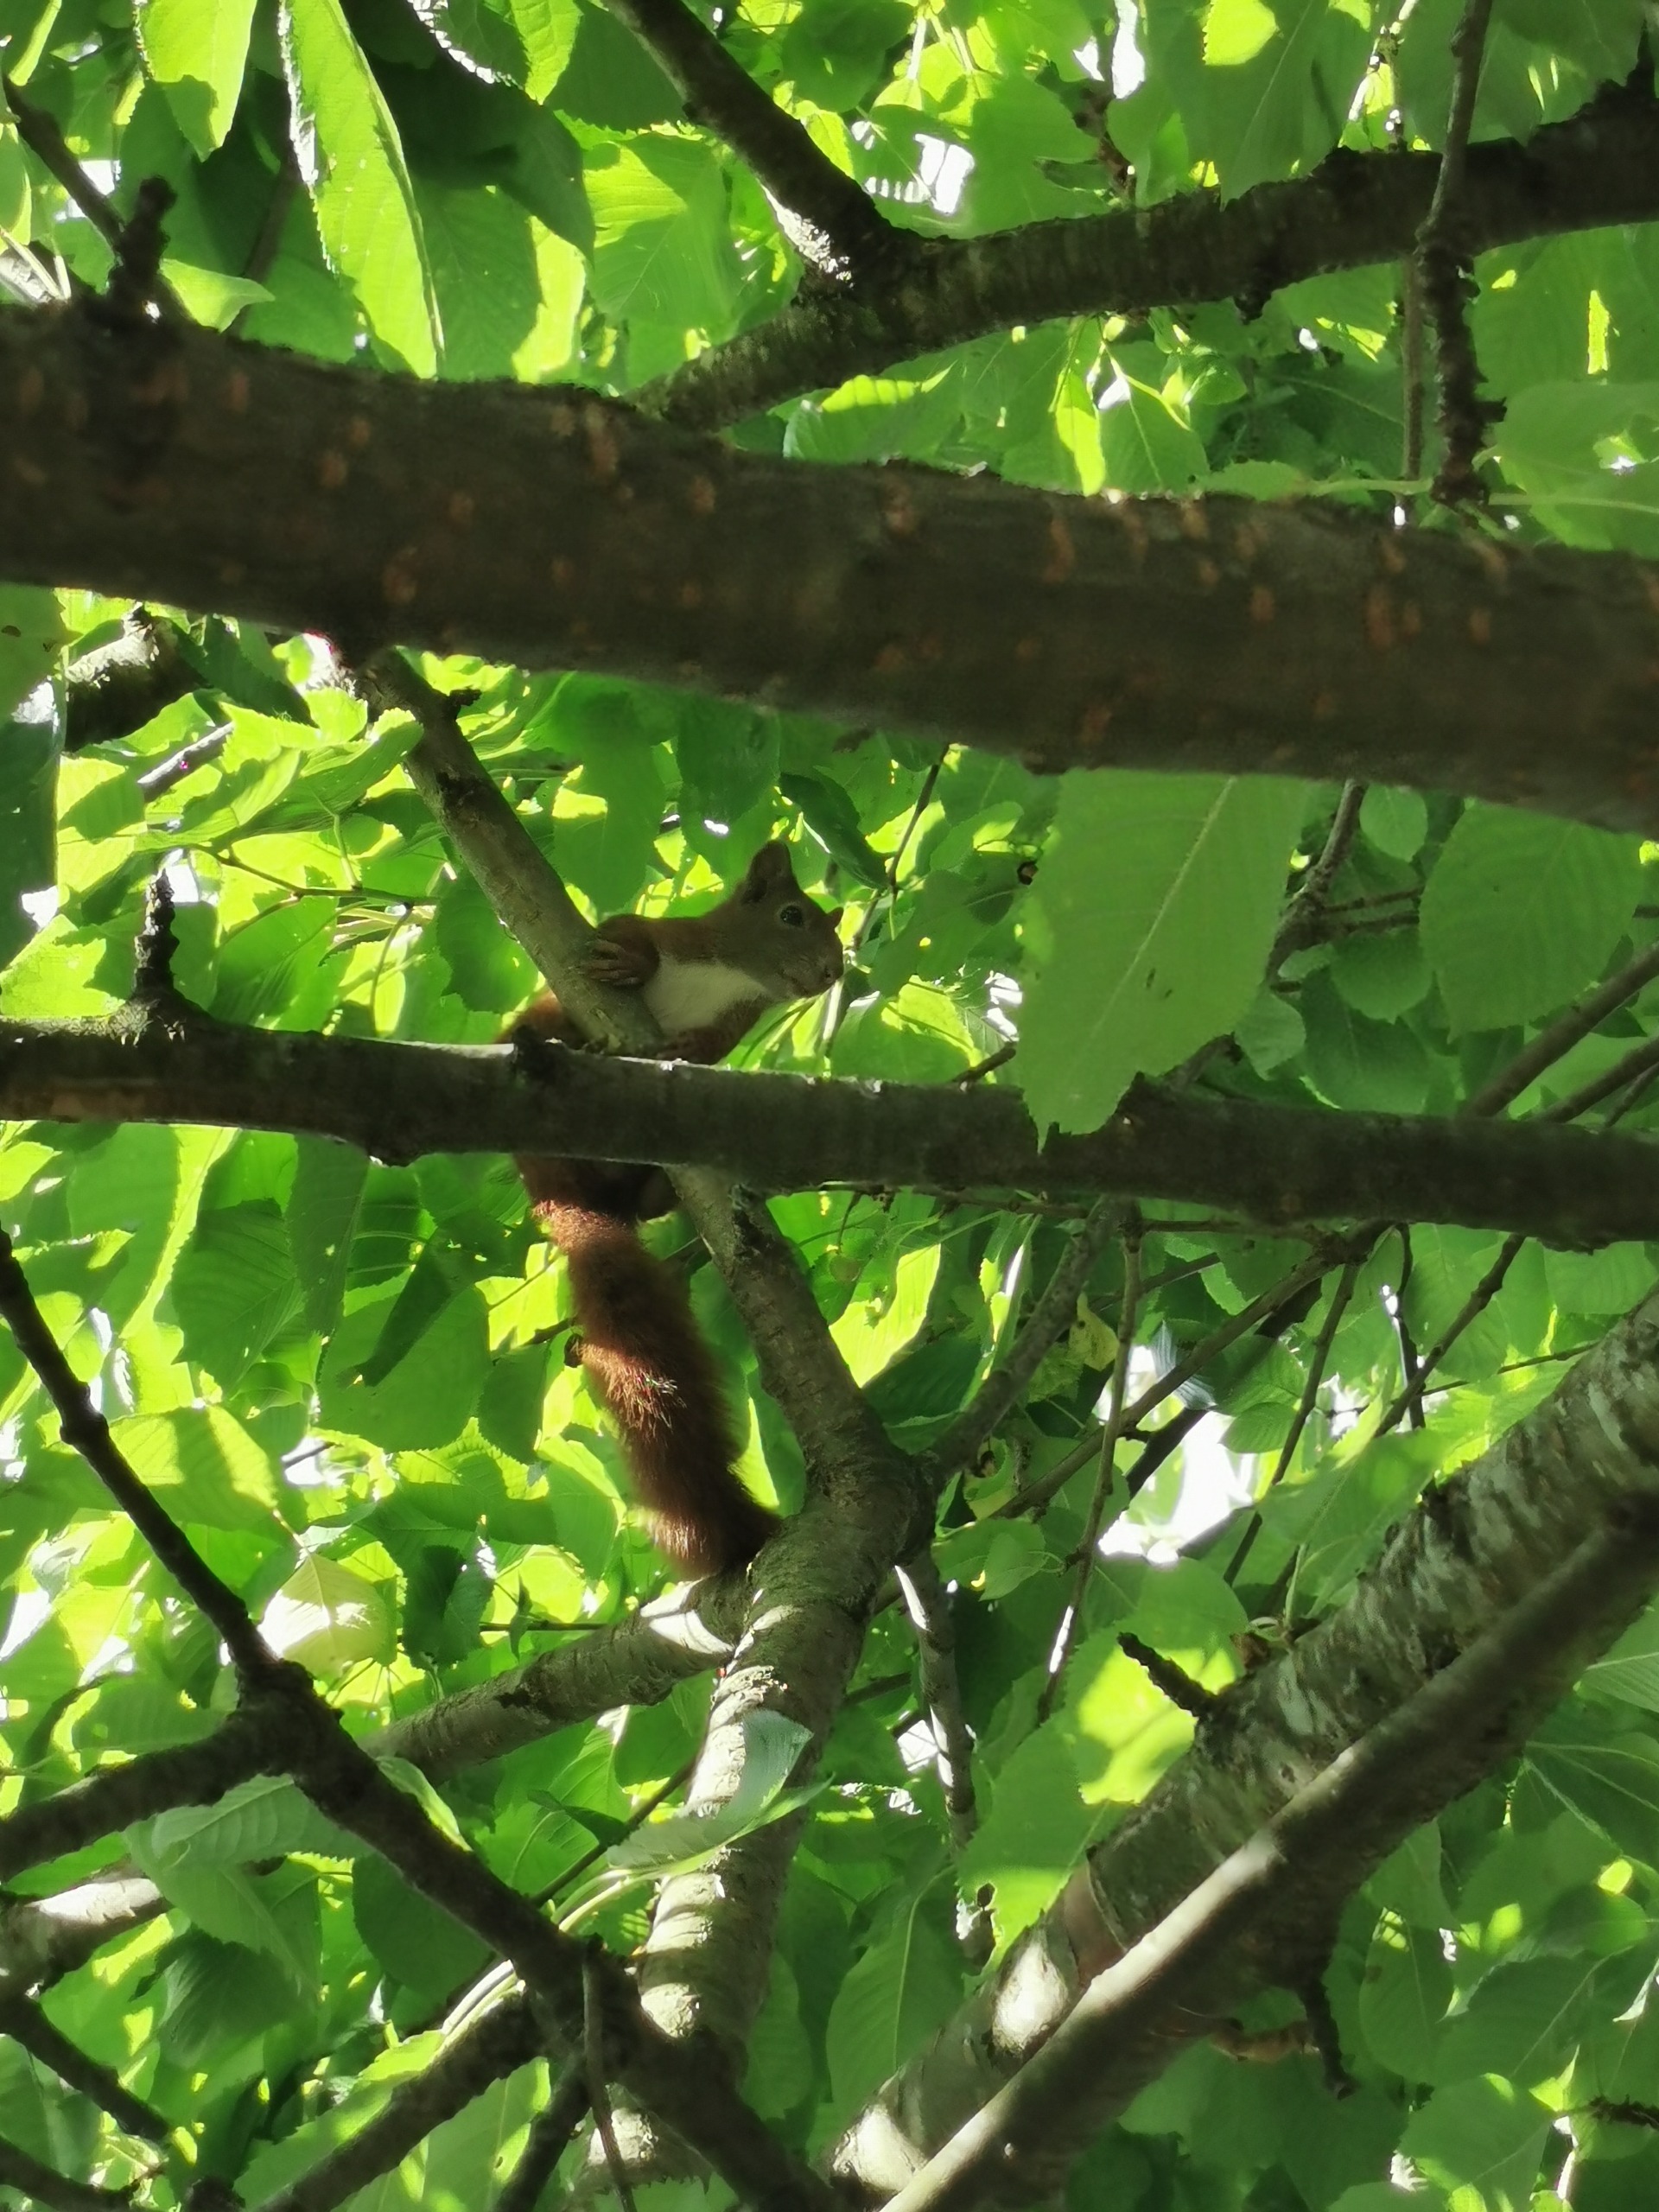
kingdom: Animalia
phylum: Chordata
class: Mammalia
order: Rodentia
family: Sciuridae
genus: Sciurus
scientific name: Sciurus vulgaris
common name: Egern
